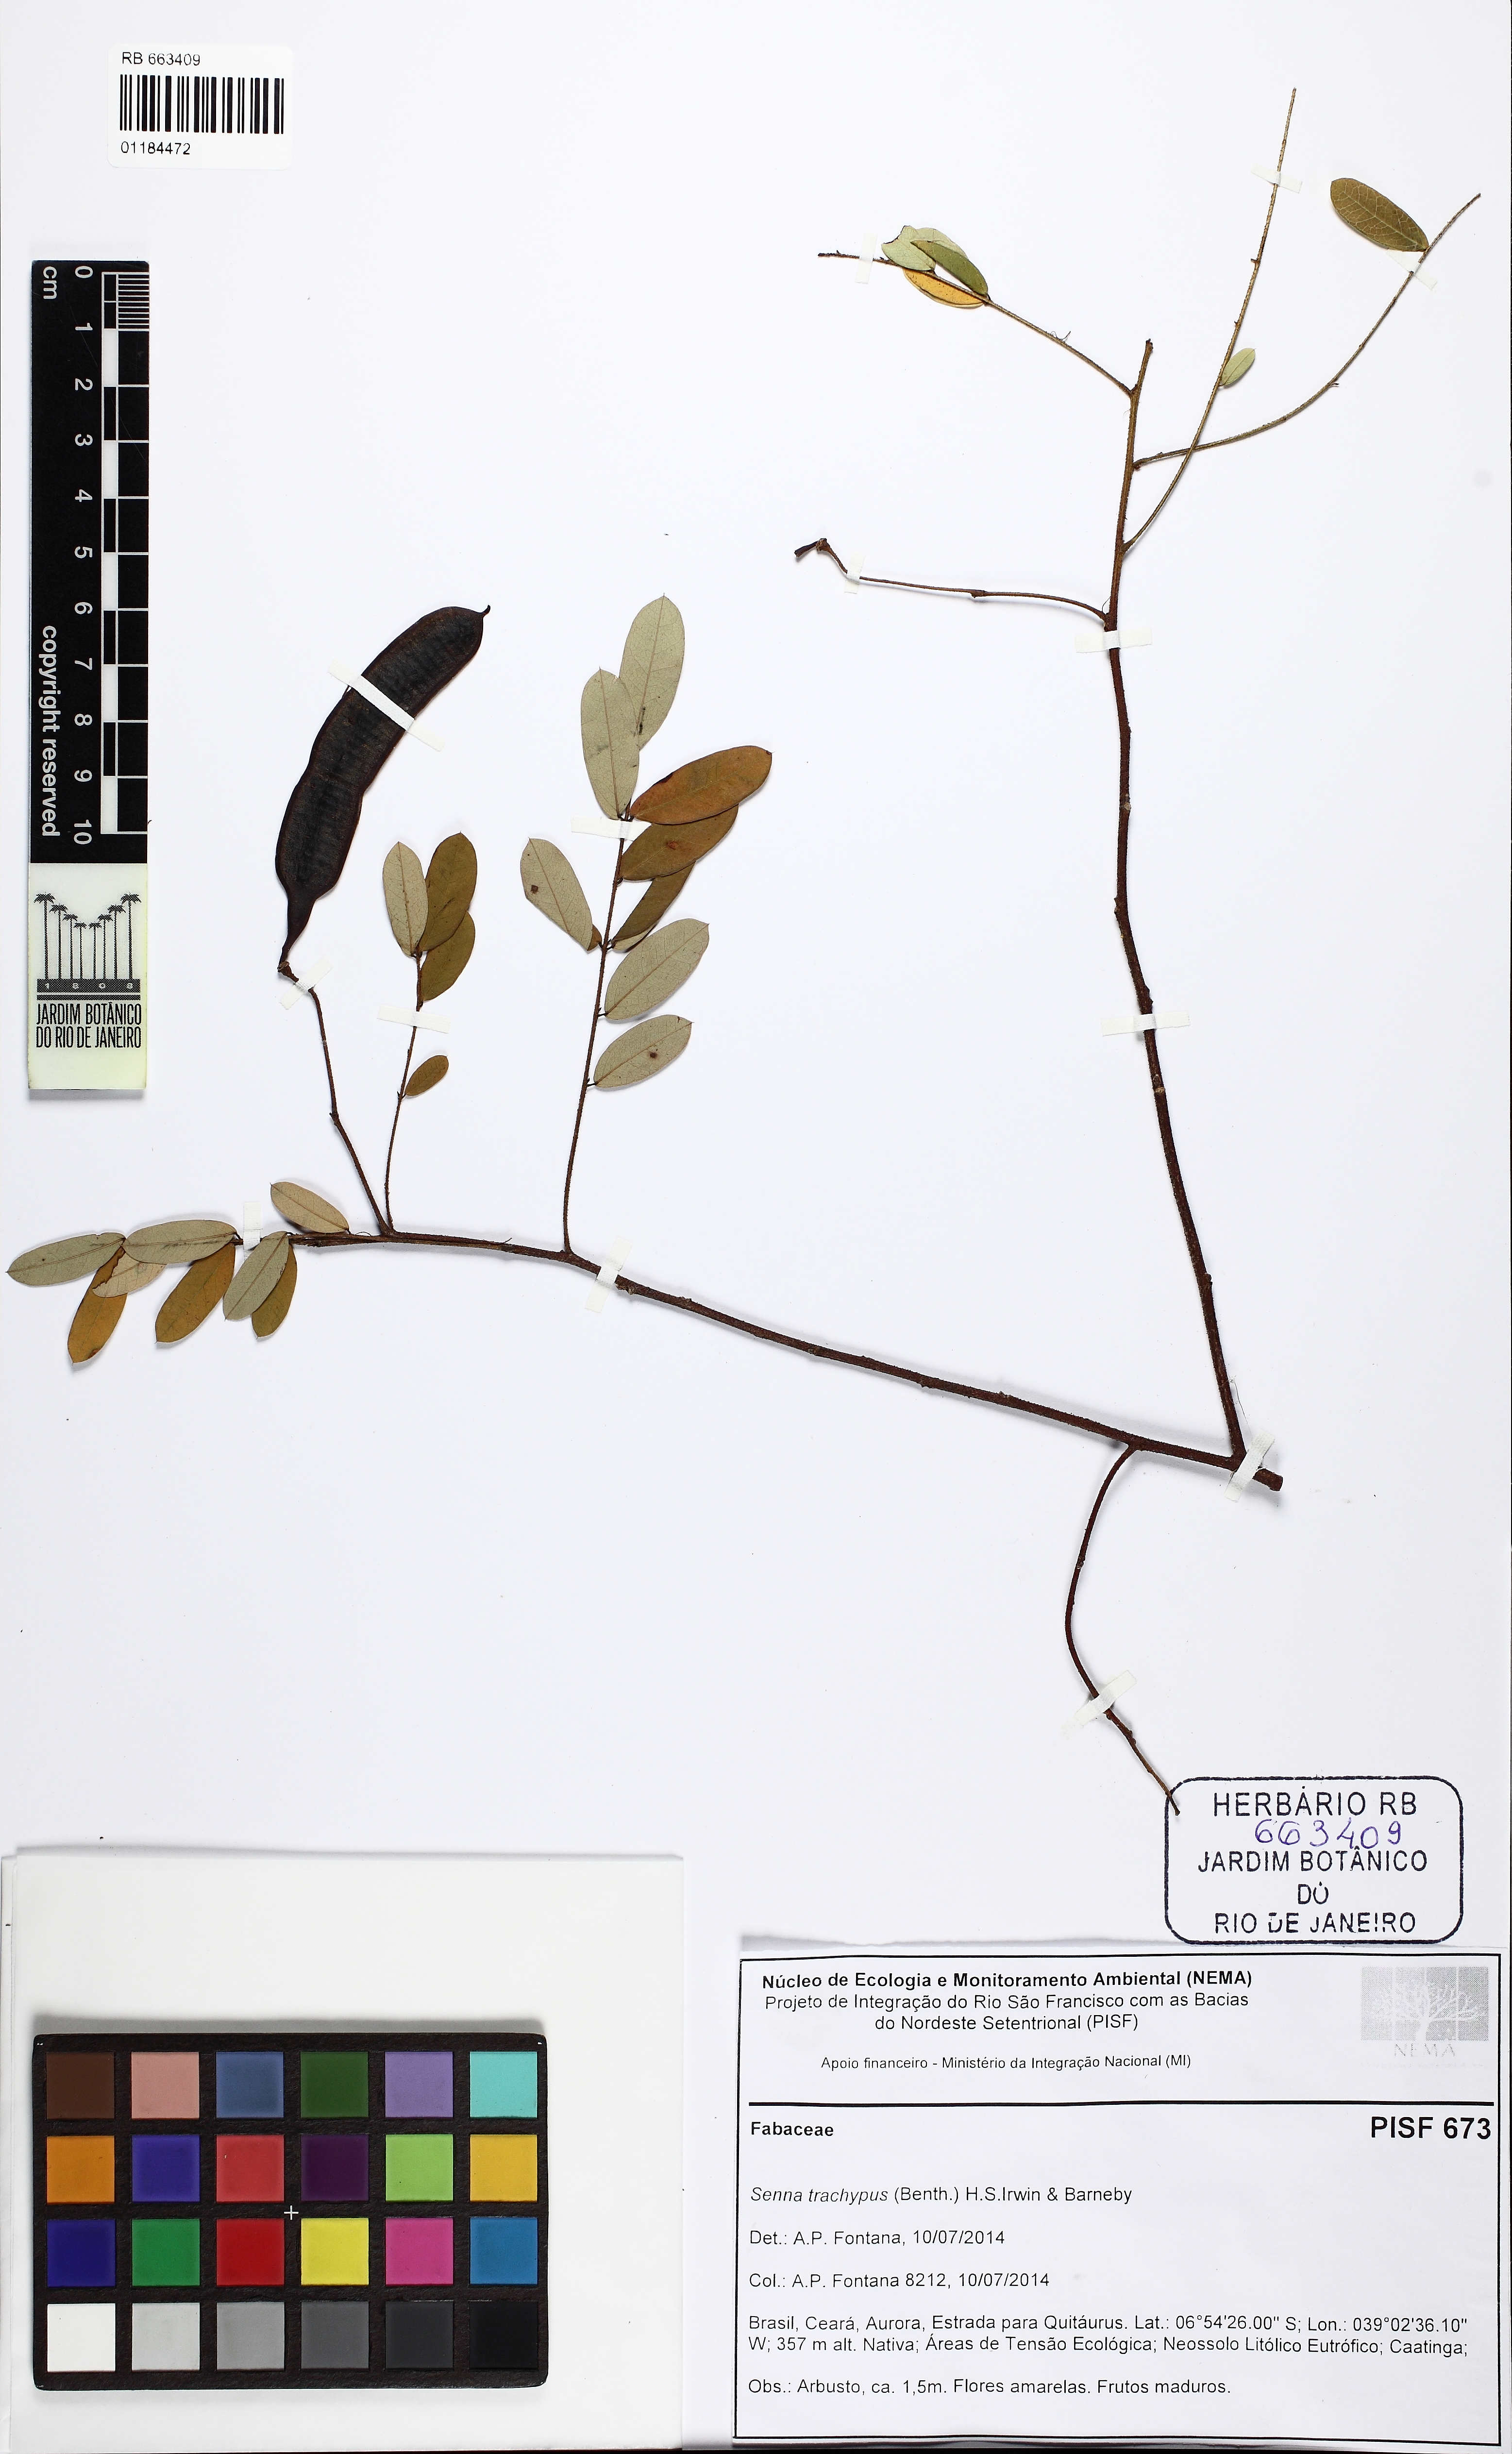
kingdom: Plantae
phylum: Tracheophyta
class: Magnoliopsida
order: Fabales
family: Fabaceae
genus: Senna
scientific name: Senna trachypus
